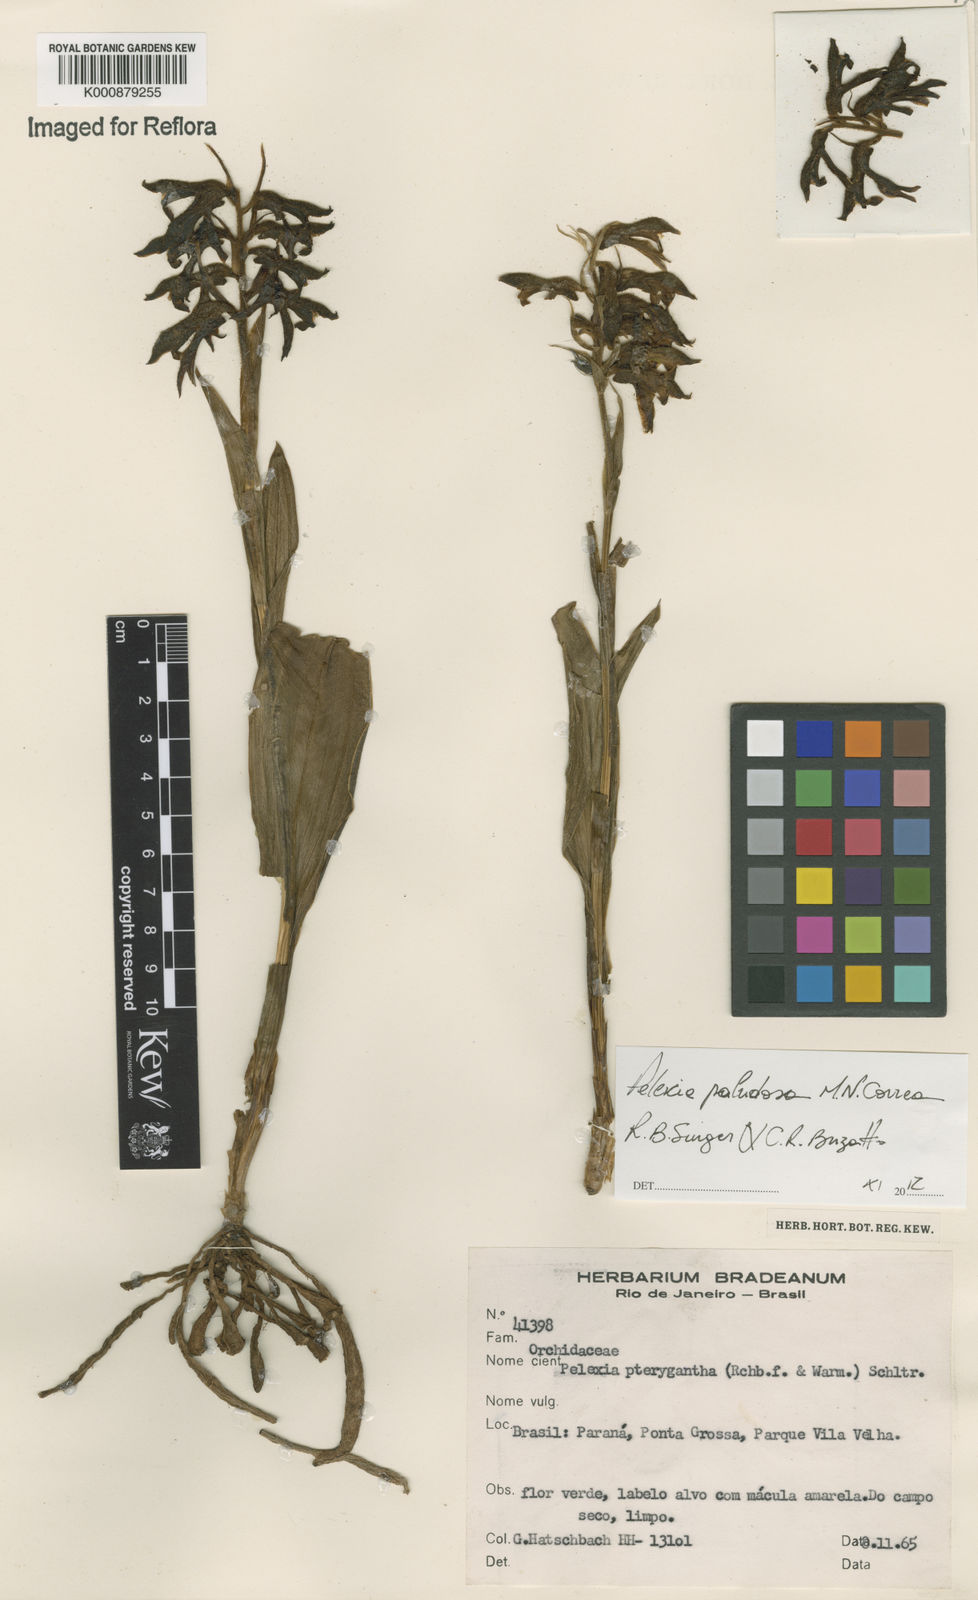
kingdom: Plantae
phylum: Tracheophyta
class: Liliopsida
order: Asparagales
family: Orchidaceae
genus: Pelexia
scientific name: Pelexia paludosa
